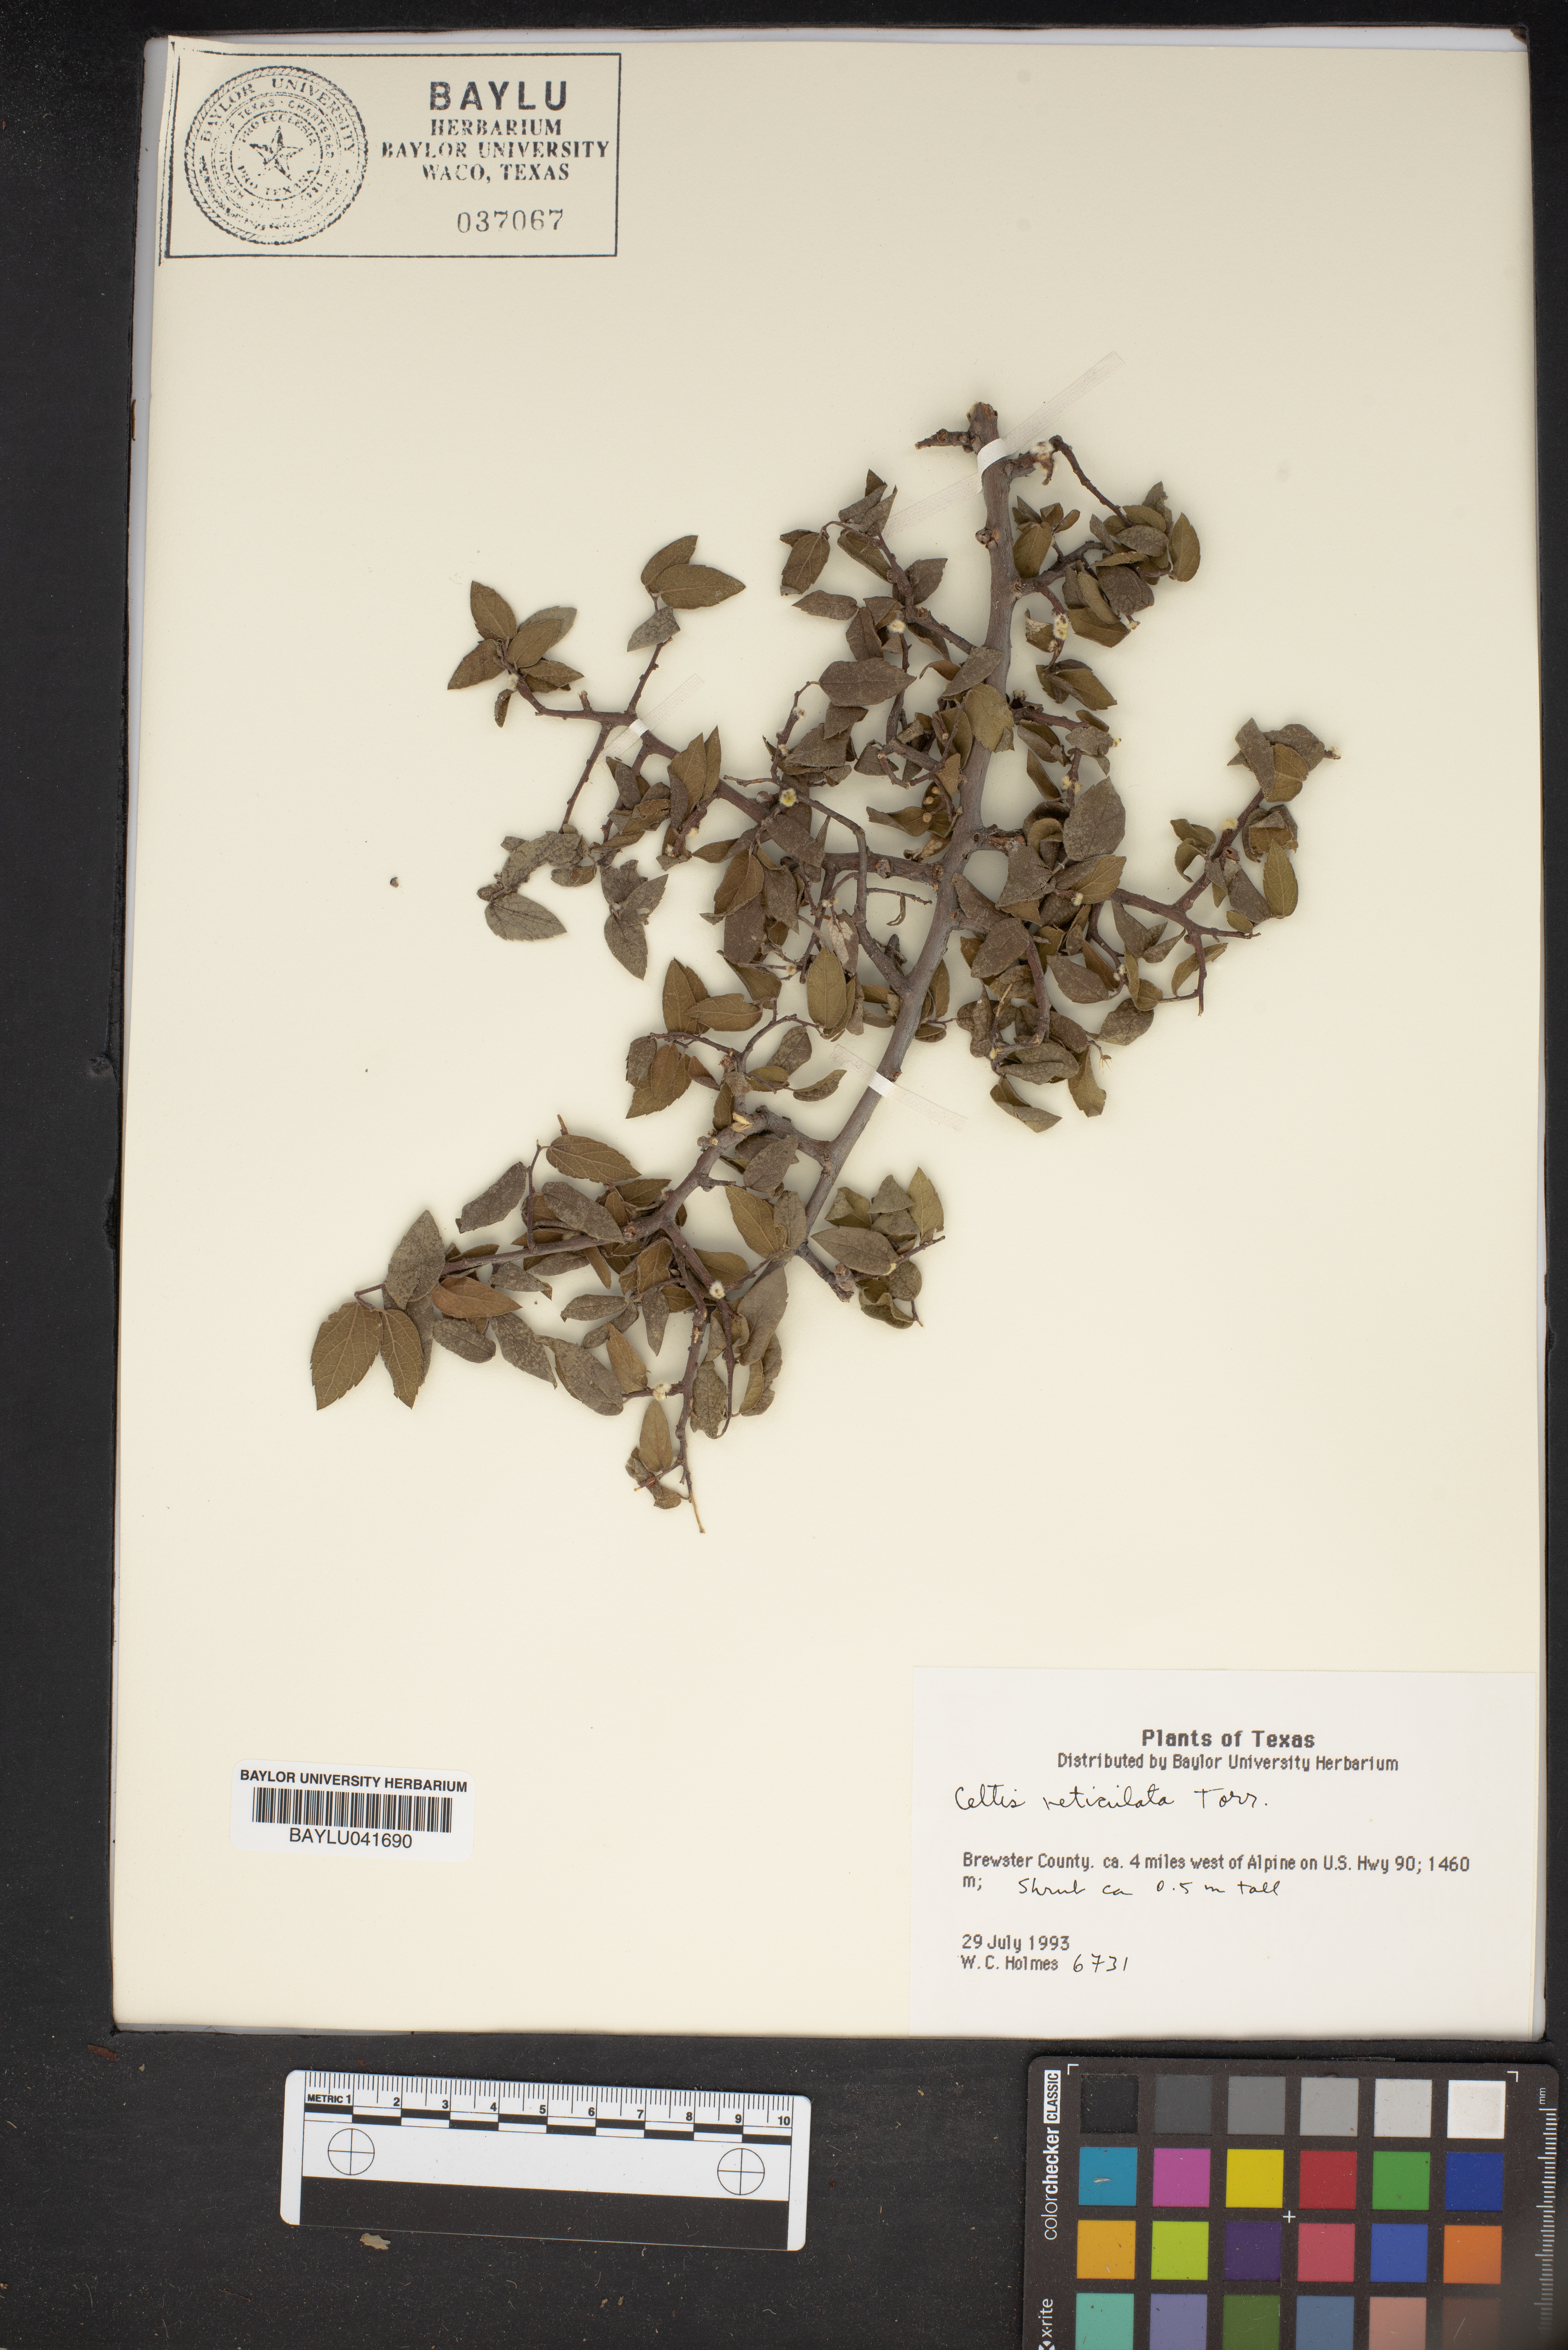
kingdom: Plantae
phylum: Tracheophyta
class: Magnoliopsida
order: Rosales
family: Cannabaceae
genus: Celtis
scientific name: Celtis reticulata
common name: Netleaf hackberry
